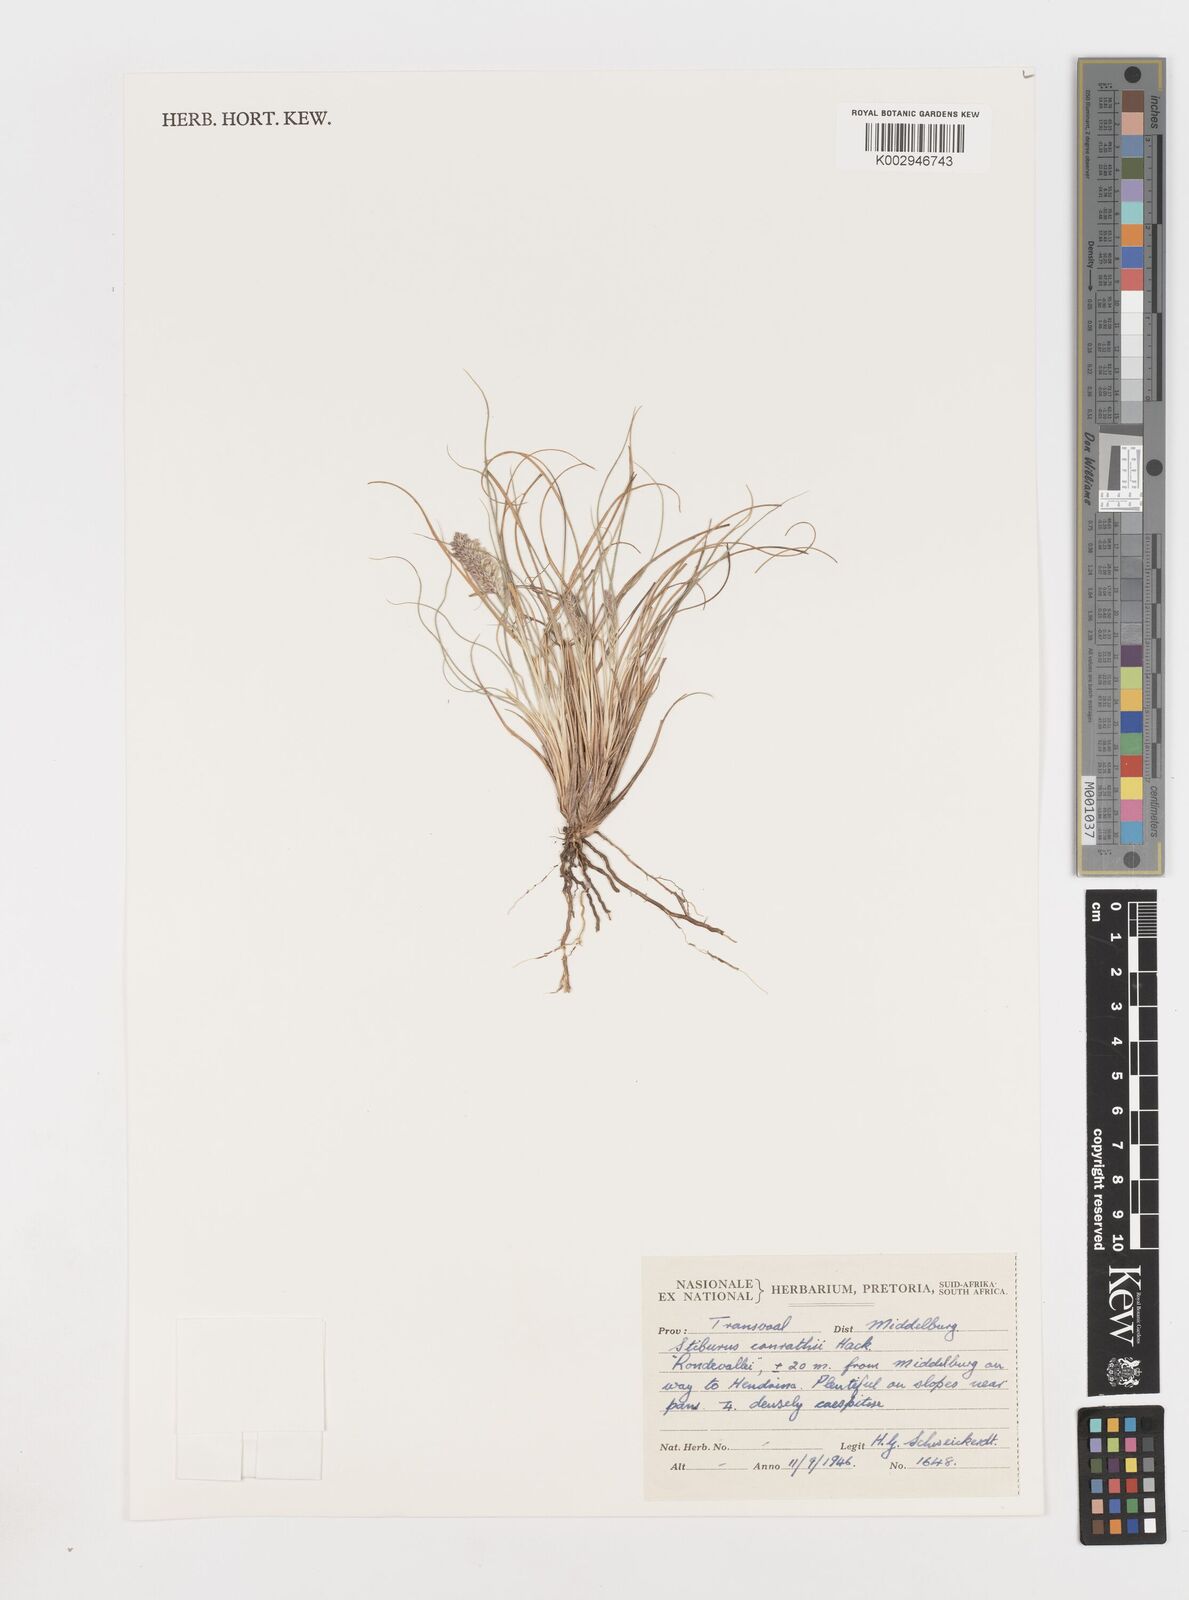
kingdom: Plantae
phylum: Tracheophyta
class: Liliopsida
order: Poales
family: Poaceae
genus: Stiburus
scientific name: Stiburus conrathii
